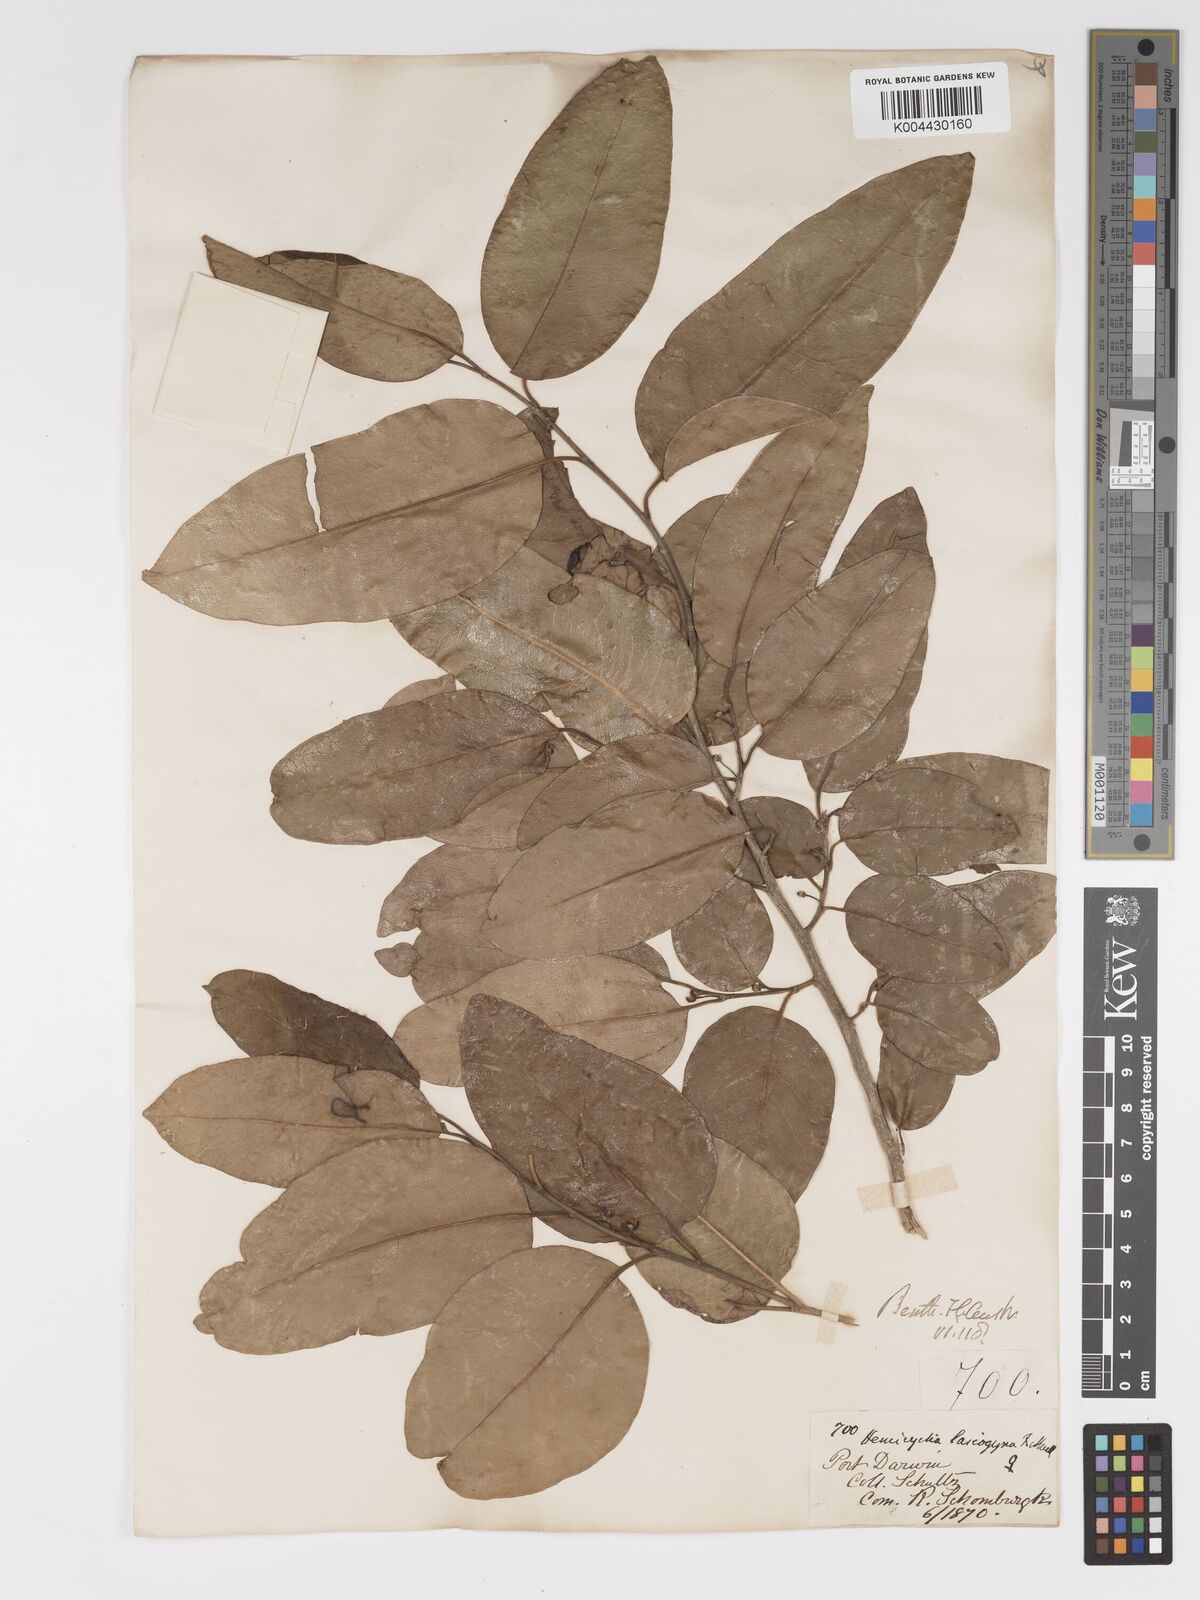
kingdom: Plantae
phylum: Tracheophyta
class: Magnoliopsida
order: Malpighiales
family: Putranjivaceae
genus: Drypetes
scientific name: Drypetes deplanchei
